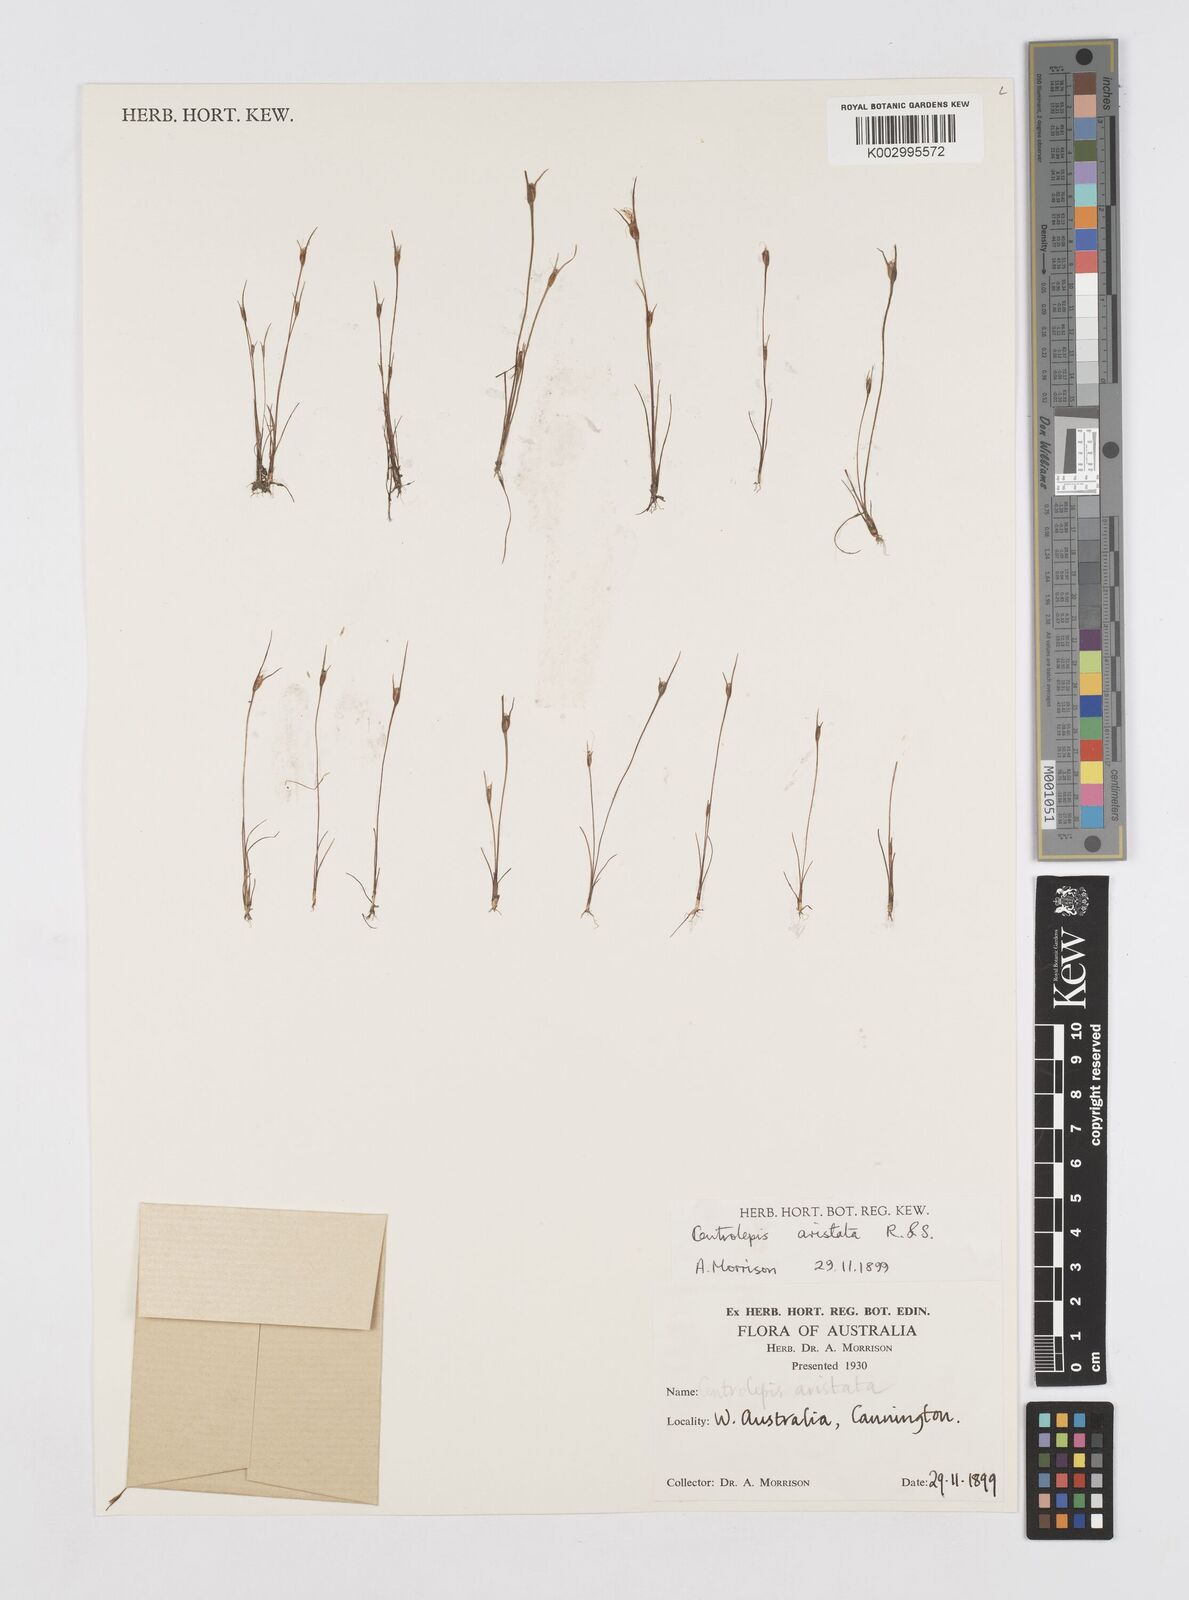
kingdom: Plantae
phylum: Tracheophyta
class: Liliopsida
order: Poales
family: Restionaceae
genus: Centrolepis
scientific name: Centrolepis aristata
